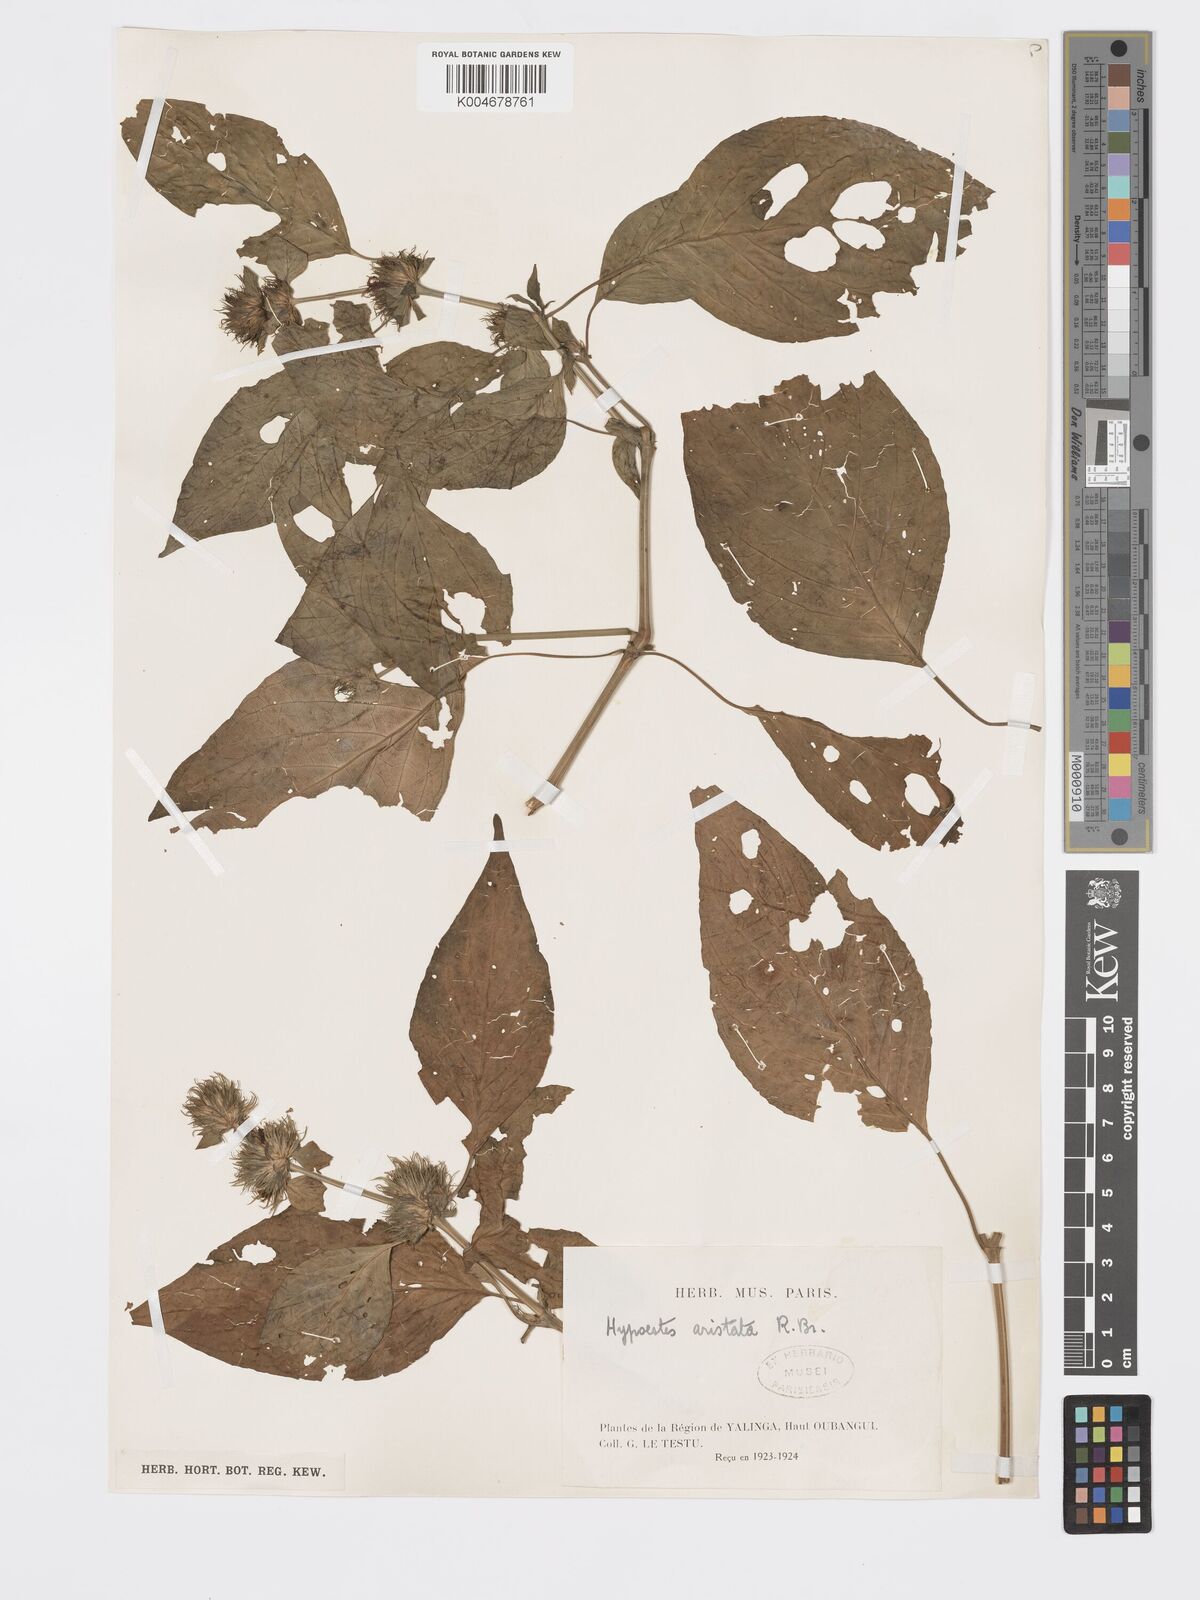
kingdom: Plantae
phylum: Tracheophyta
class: Magnoliopsida
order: Lamiales
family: Acanthaceae
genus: Hypoestes
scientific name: Hypoestes aristata
